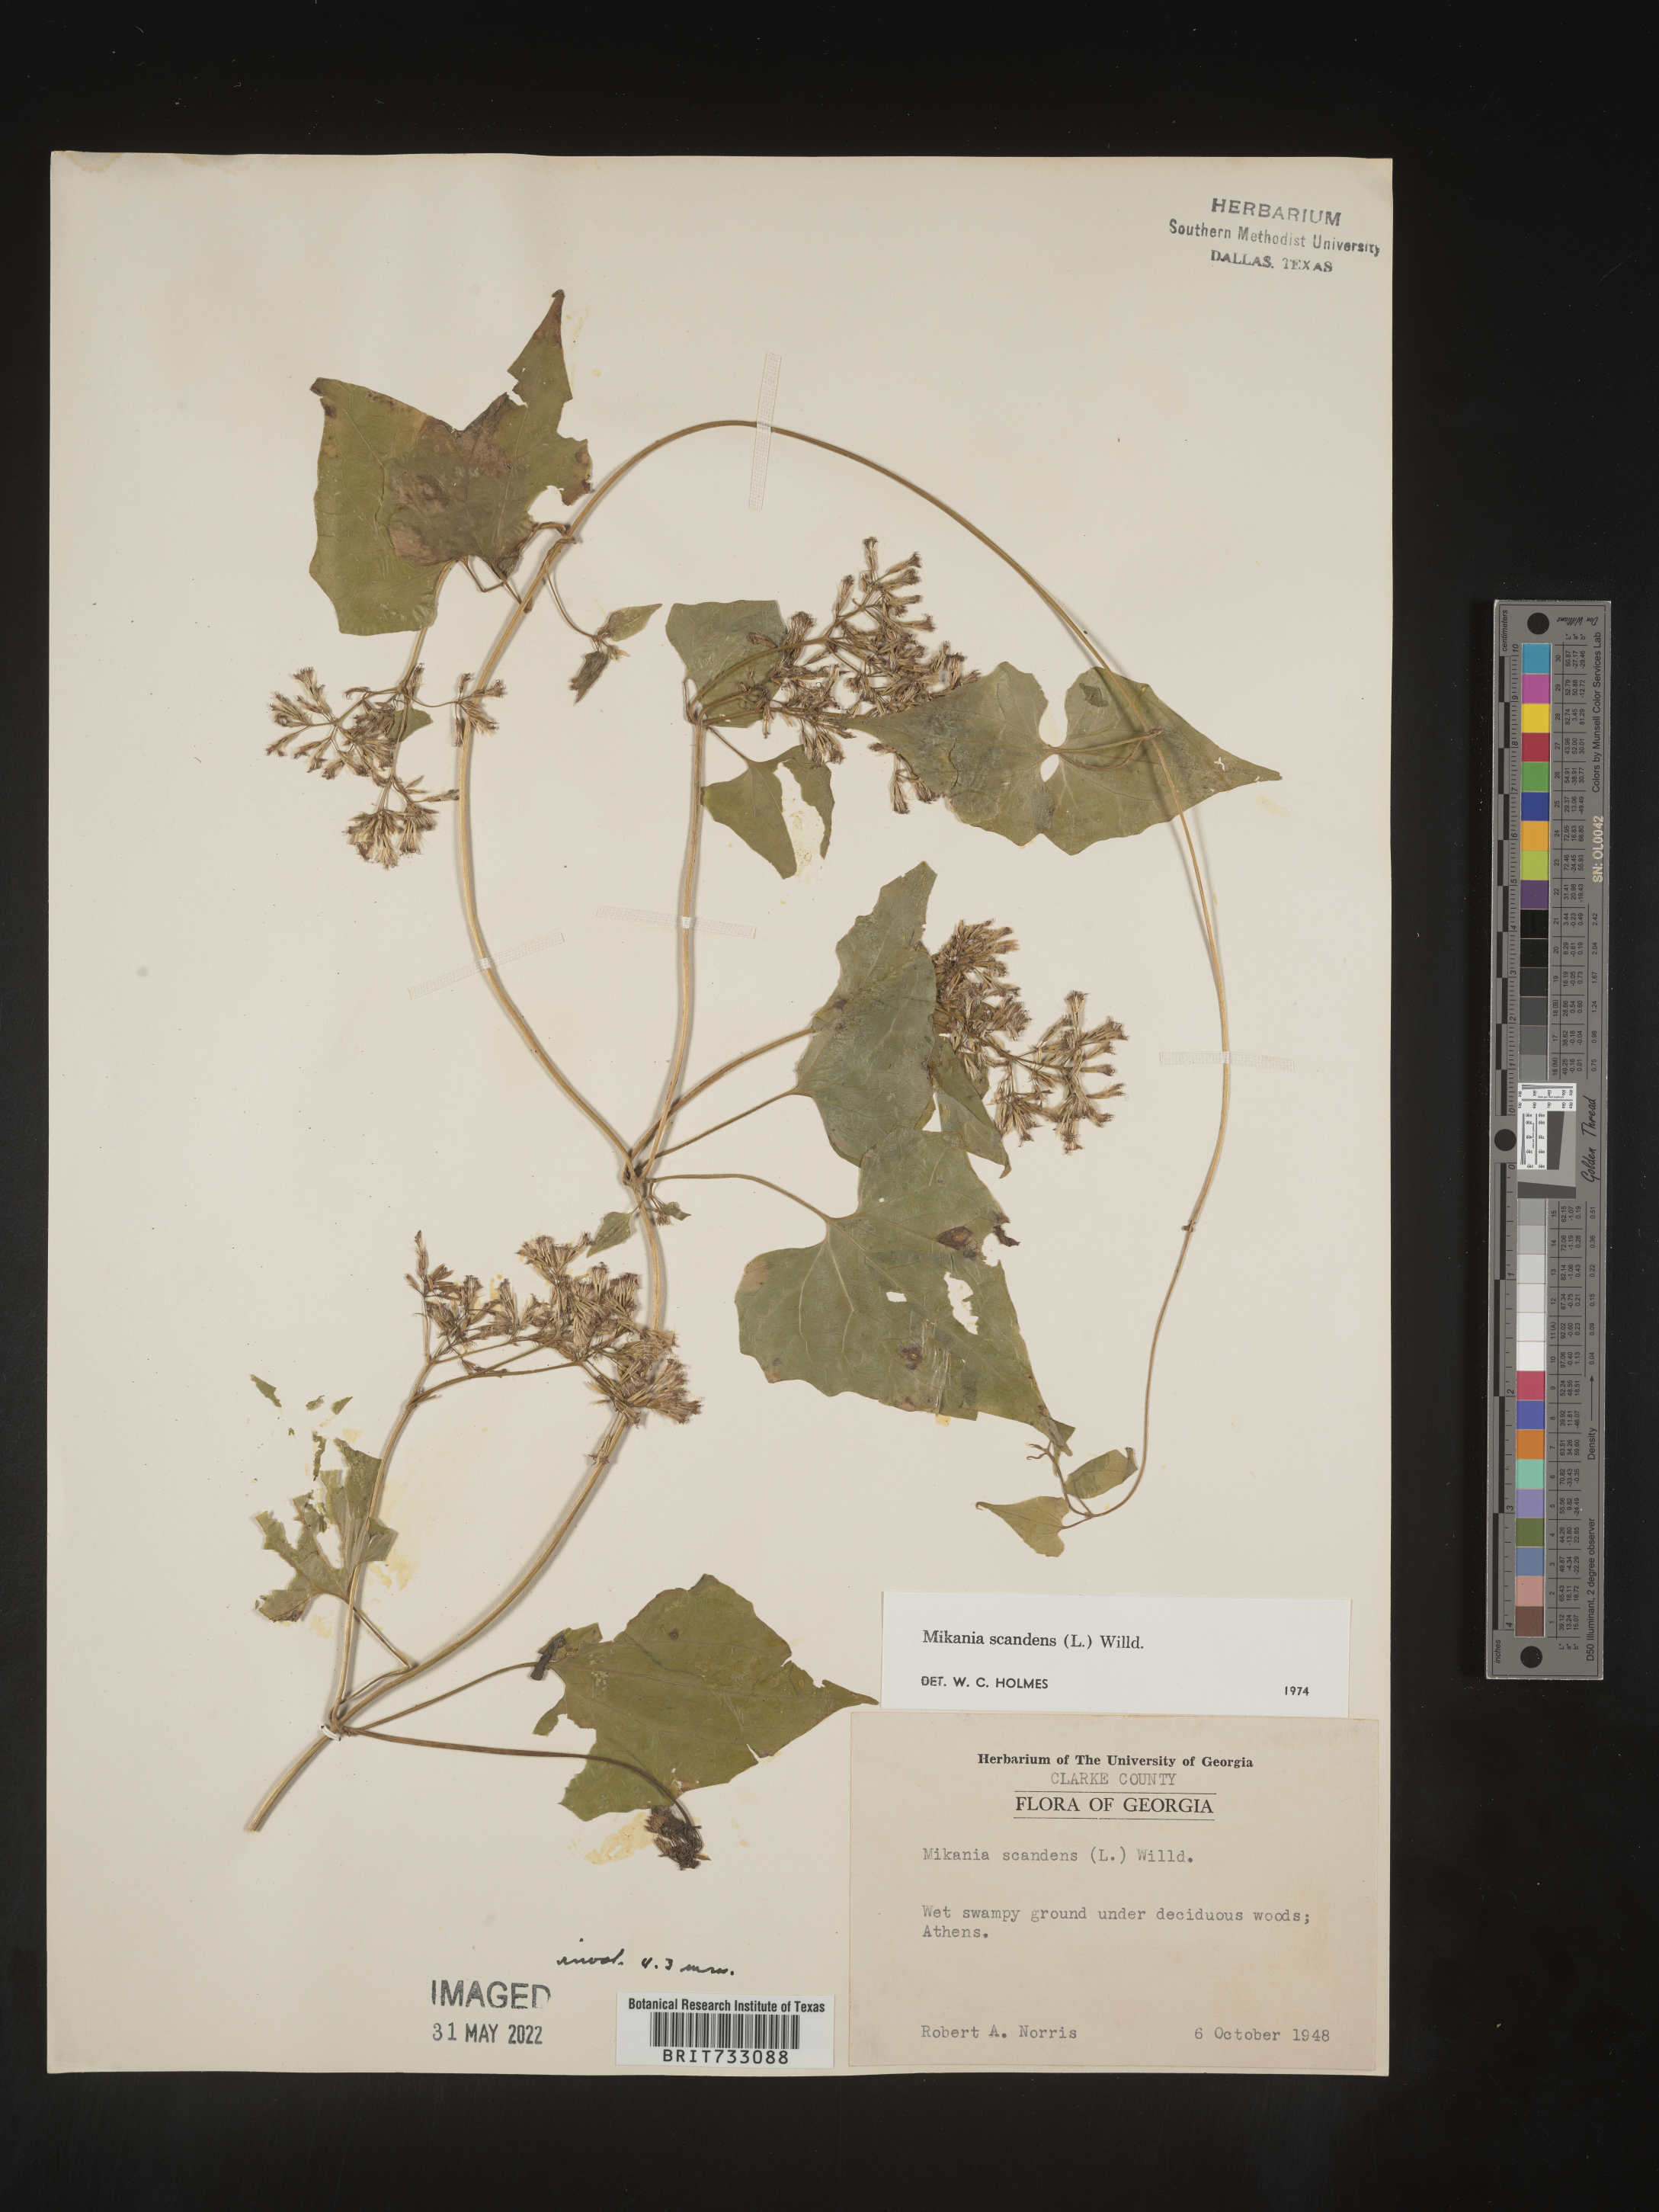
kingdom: Plantae
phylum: Tracheophyta
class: Magnoliopsida
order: Asterales
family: Asteraceae
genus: Mikania
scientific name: Mikania scandens
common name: Climbing hempvine
